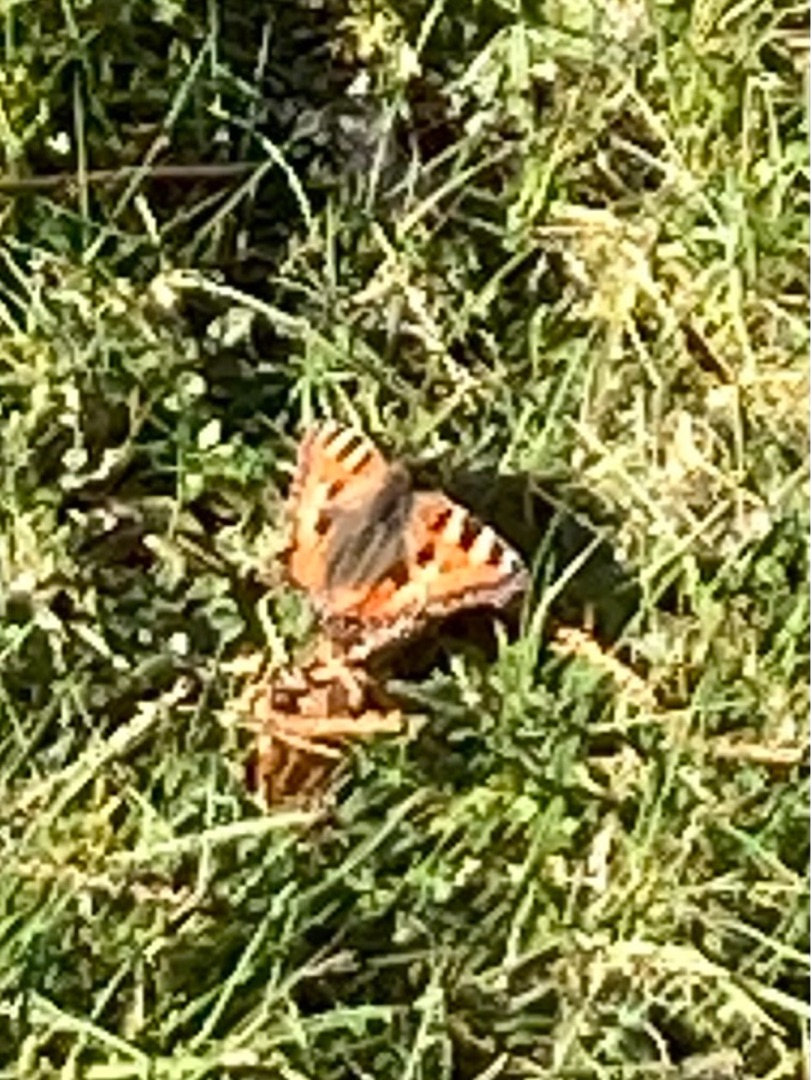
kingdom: Animalia
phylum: Arthropoda
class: Insecta
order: Lepidoptera
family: Nymphalidae
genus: Aglais
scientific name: Aglais urticae
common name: Nældens takvinge
